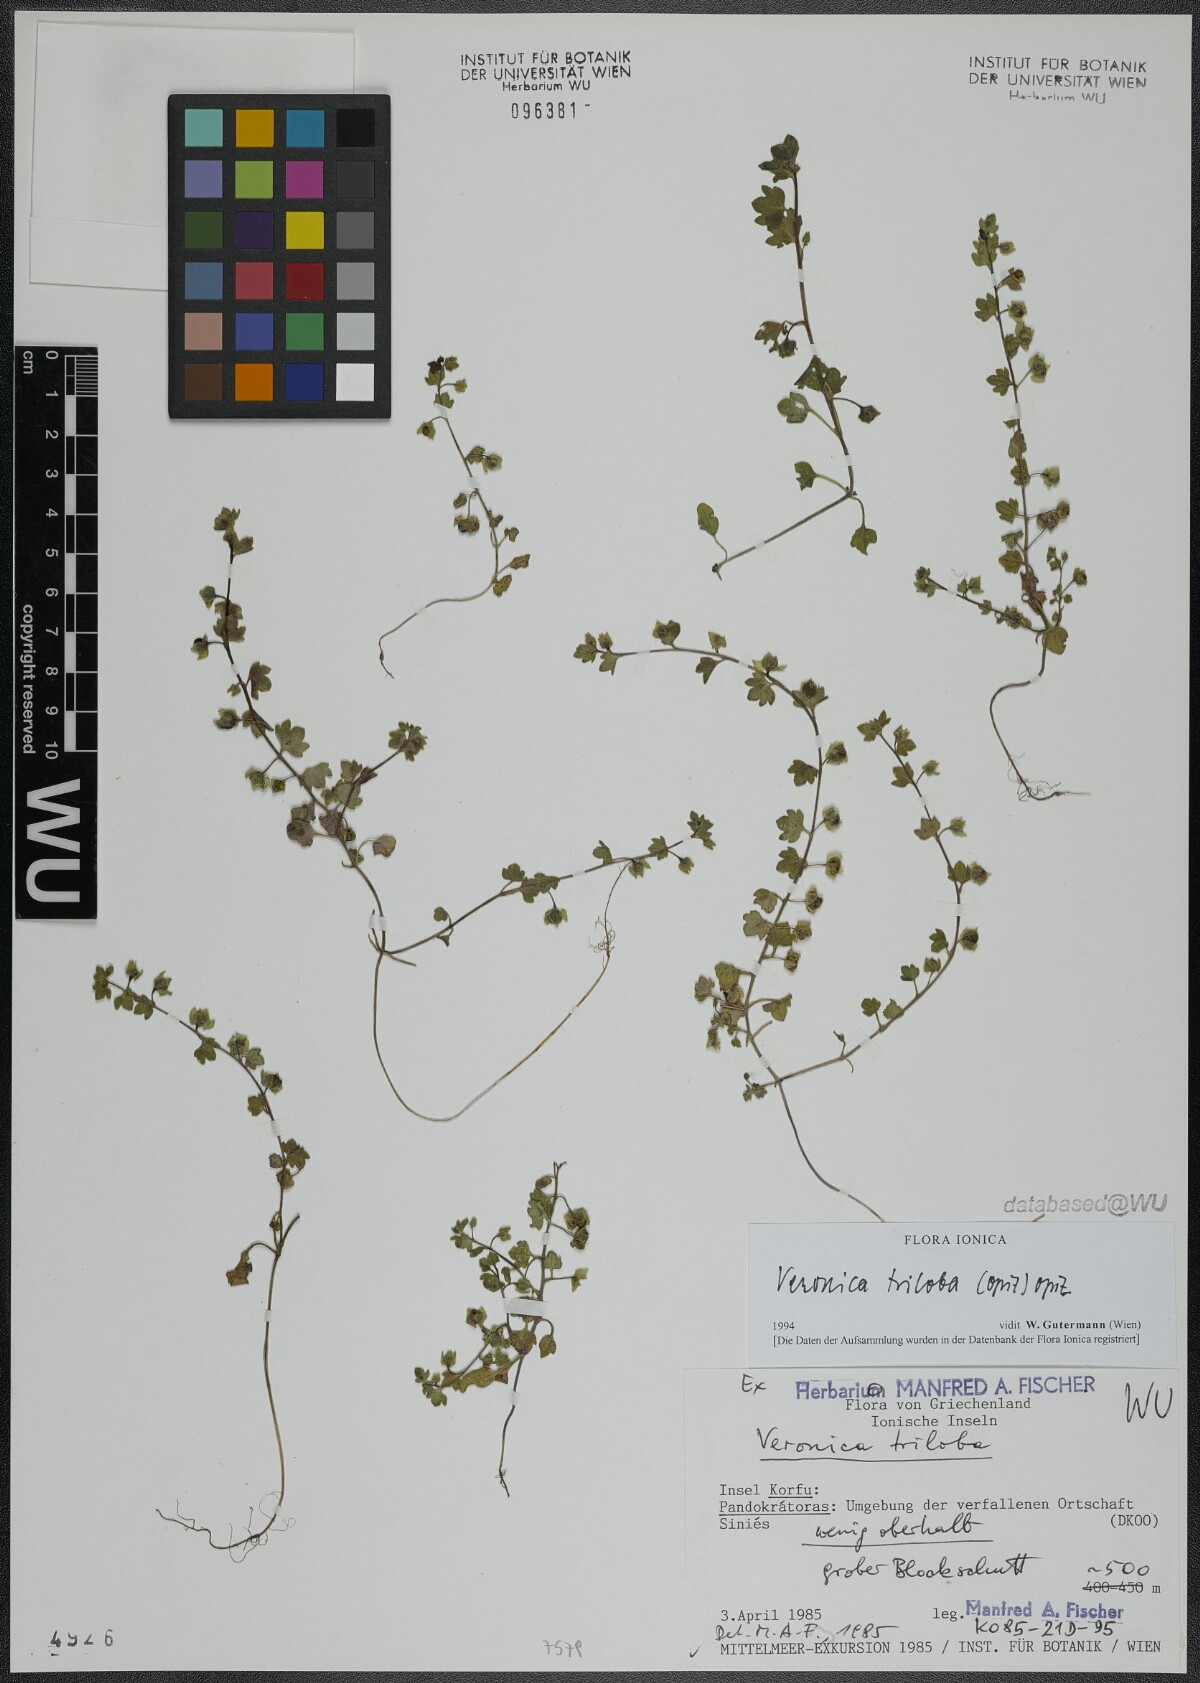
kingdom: Plantae
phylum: Tracheophyta
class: Magnoliopsida
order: Lamiales
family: Plantaginaceae
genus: Veronica
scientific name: Veronica triloba
